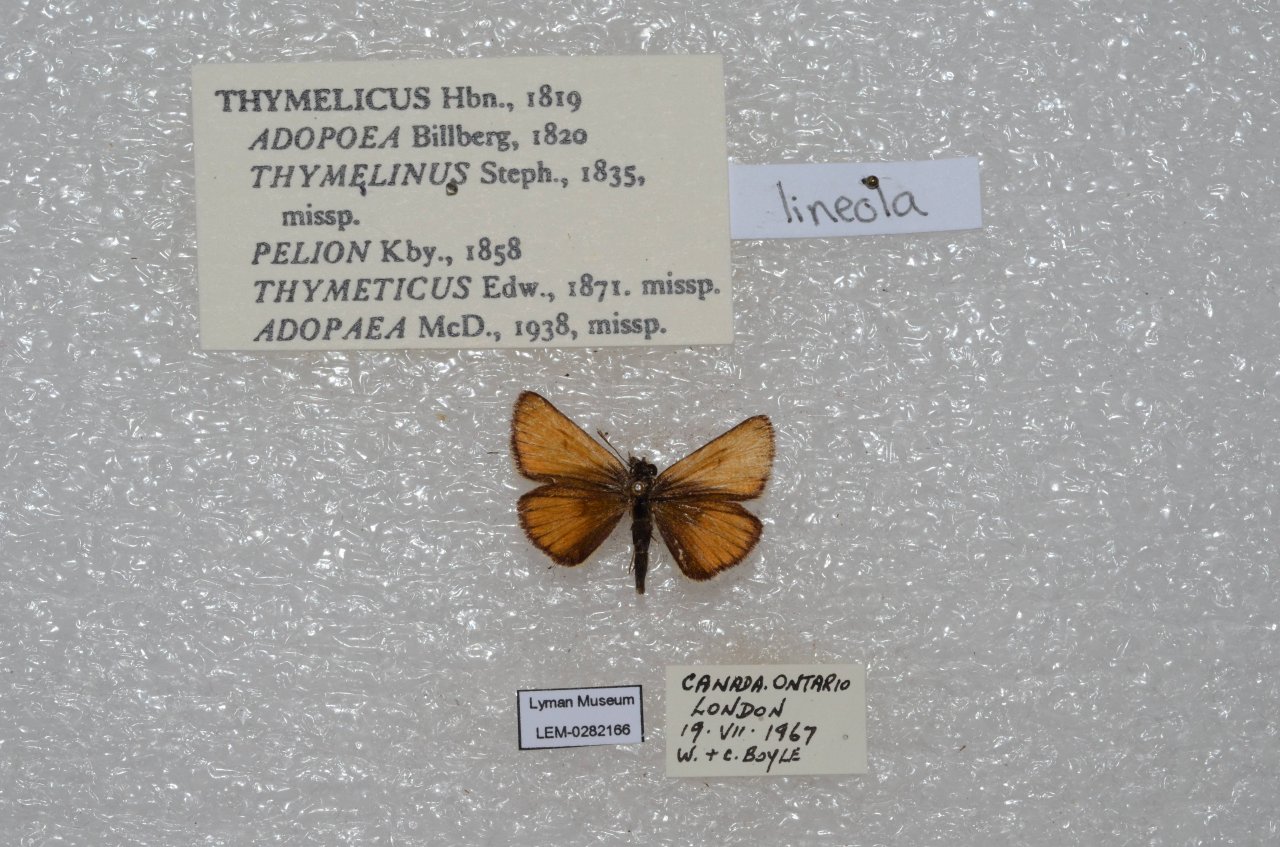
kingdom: Animalia
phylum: Arthropoda
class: Insecta
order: Lepidoptera
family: Hesperiidae
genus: Thymelicus
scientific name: Thymelicus lineola
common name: European Skipper
